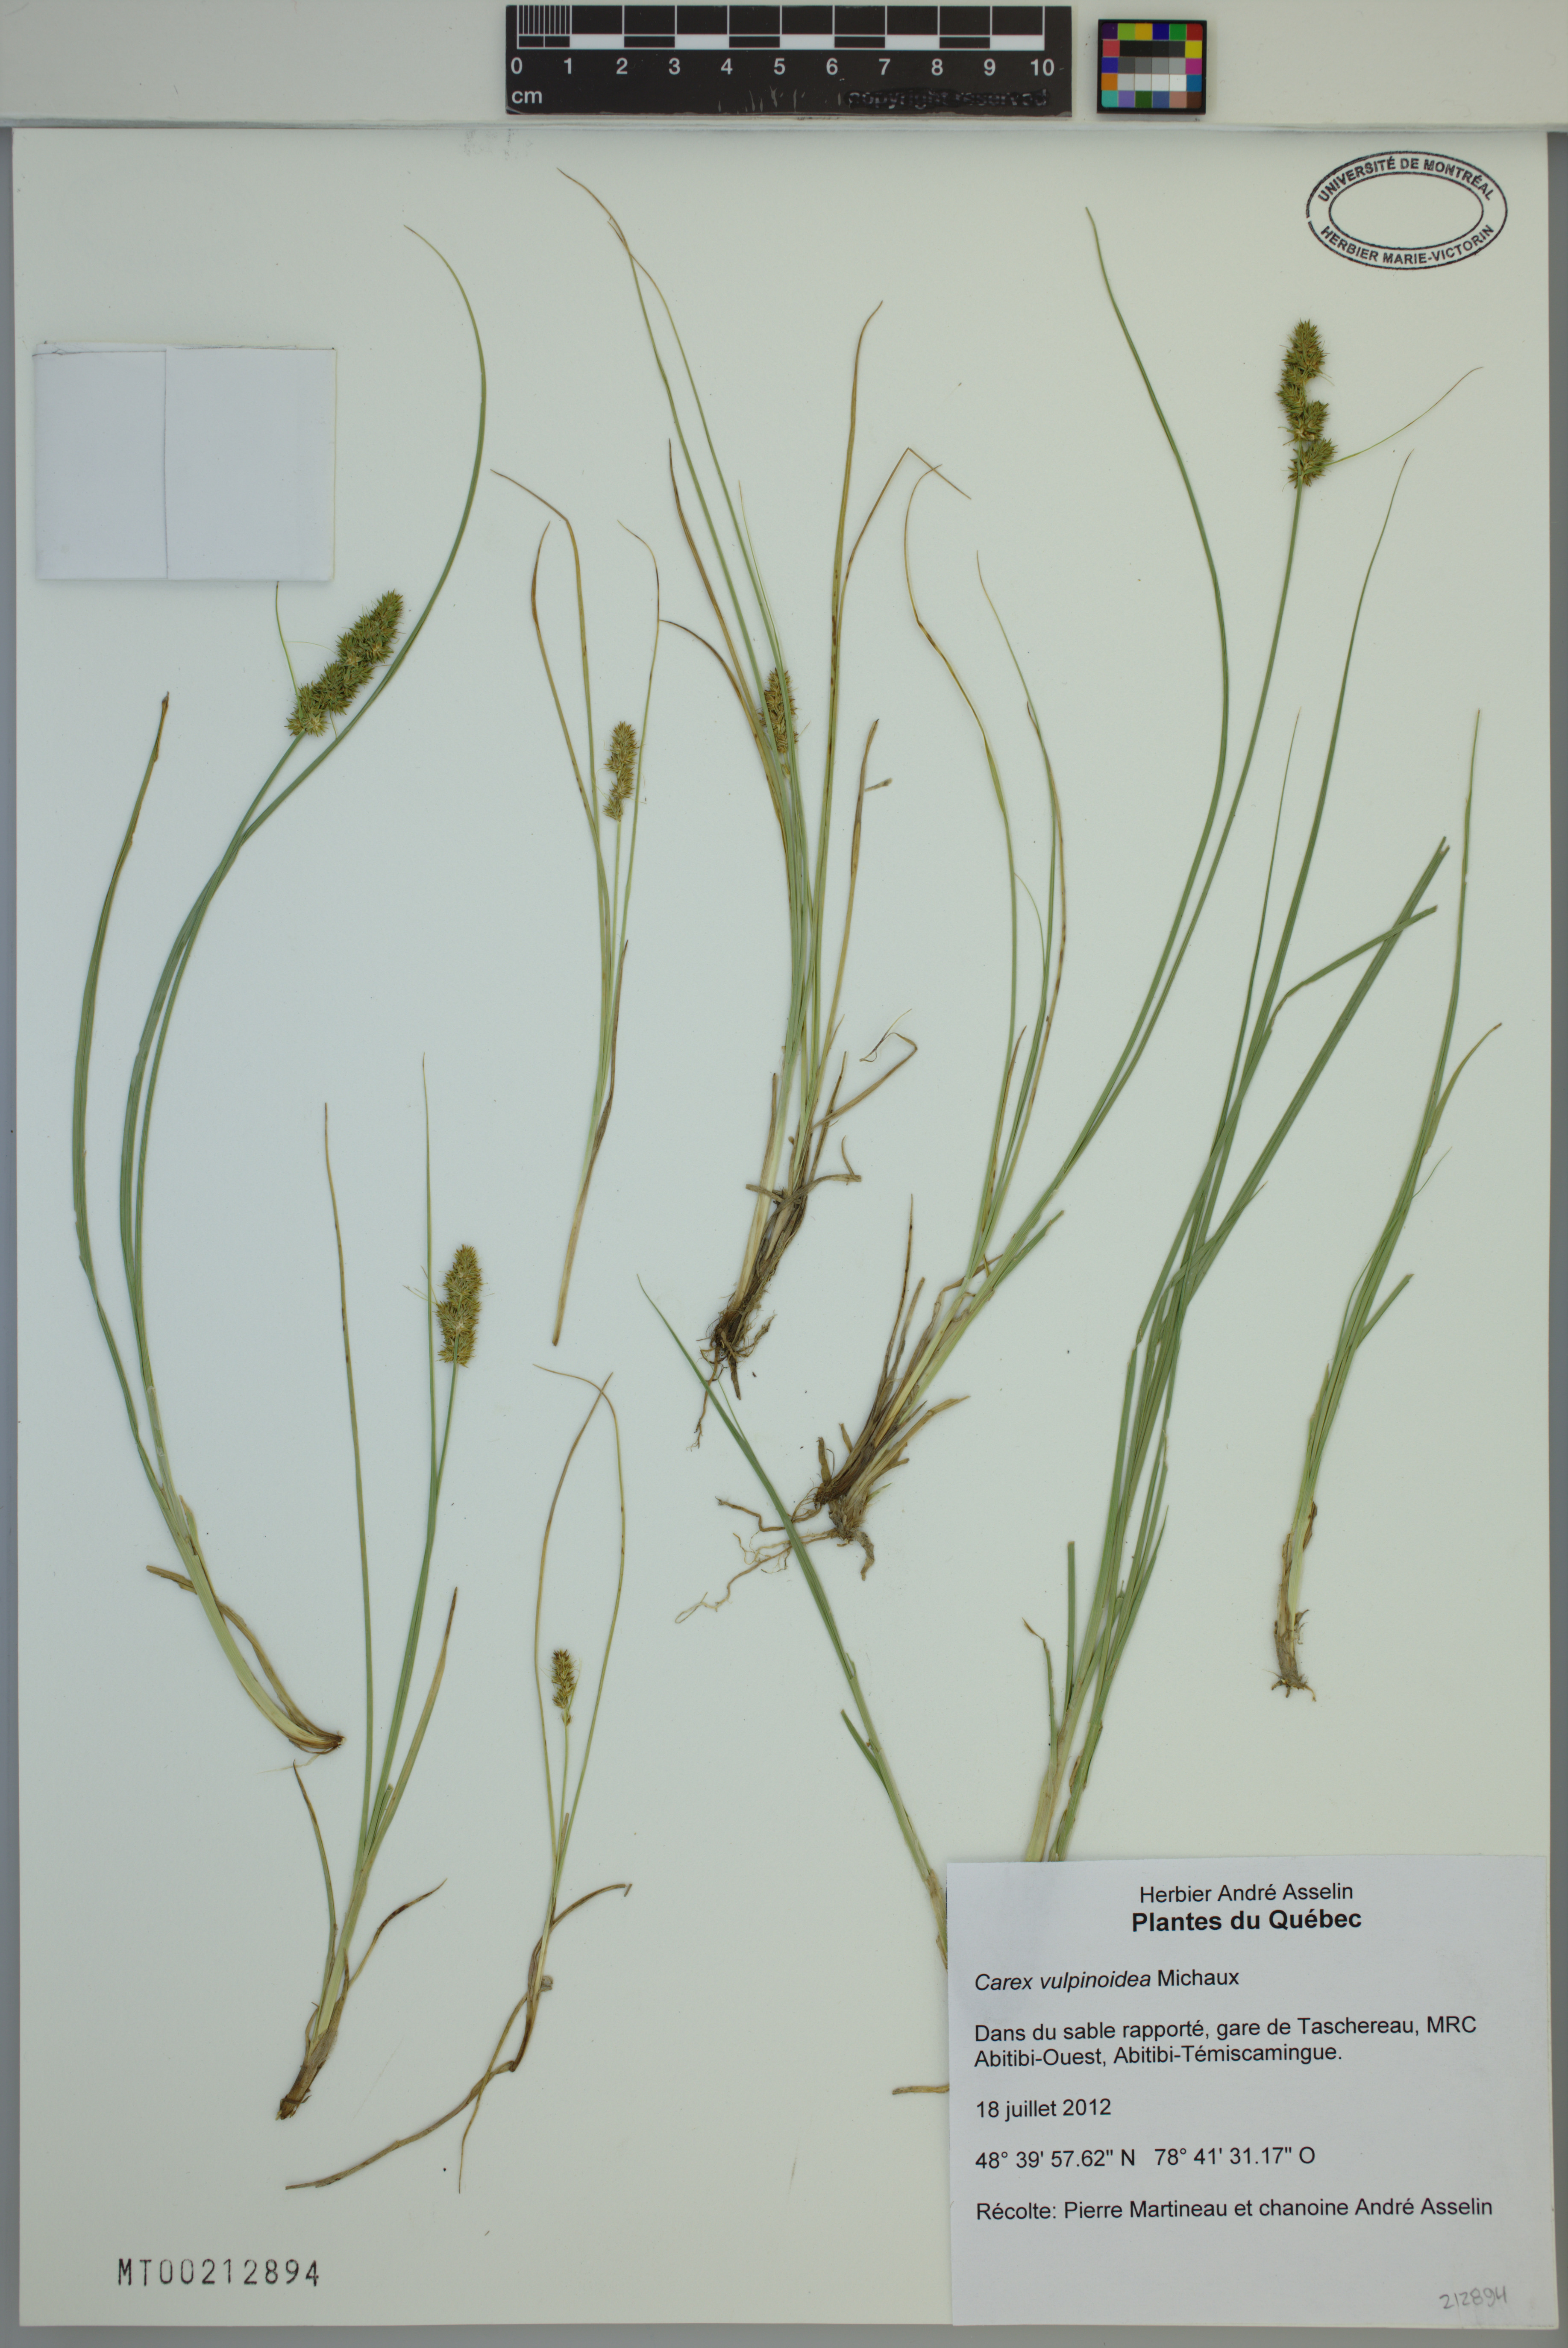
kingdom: Plantae
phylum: Tracheophyta
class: Liliopsida
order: Poales
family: Cyperaceae
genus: Carex
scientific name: Carex vulpinoidea
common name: American fox-sedge
